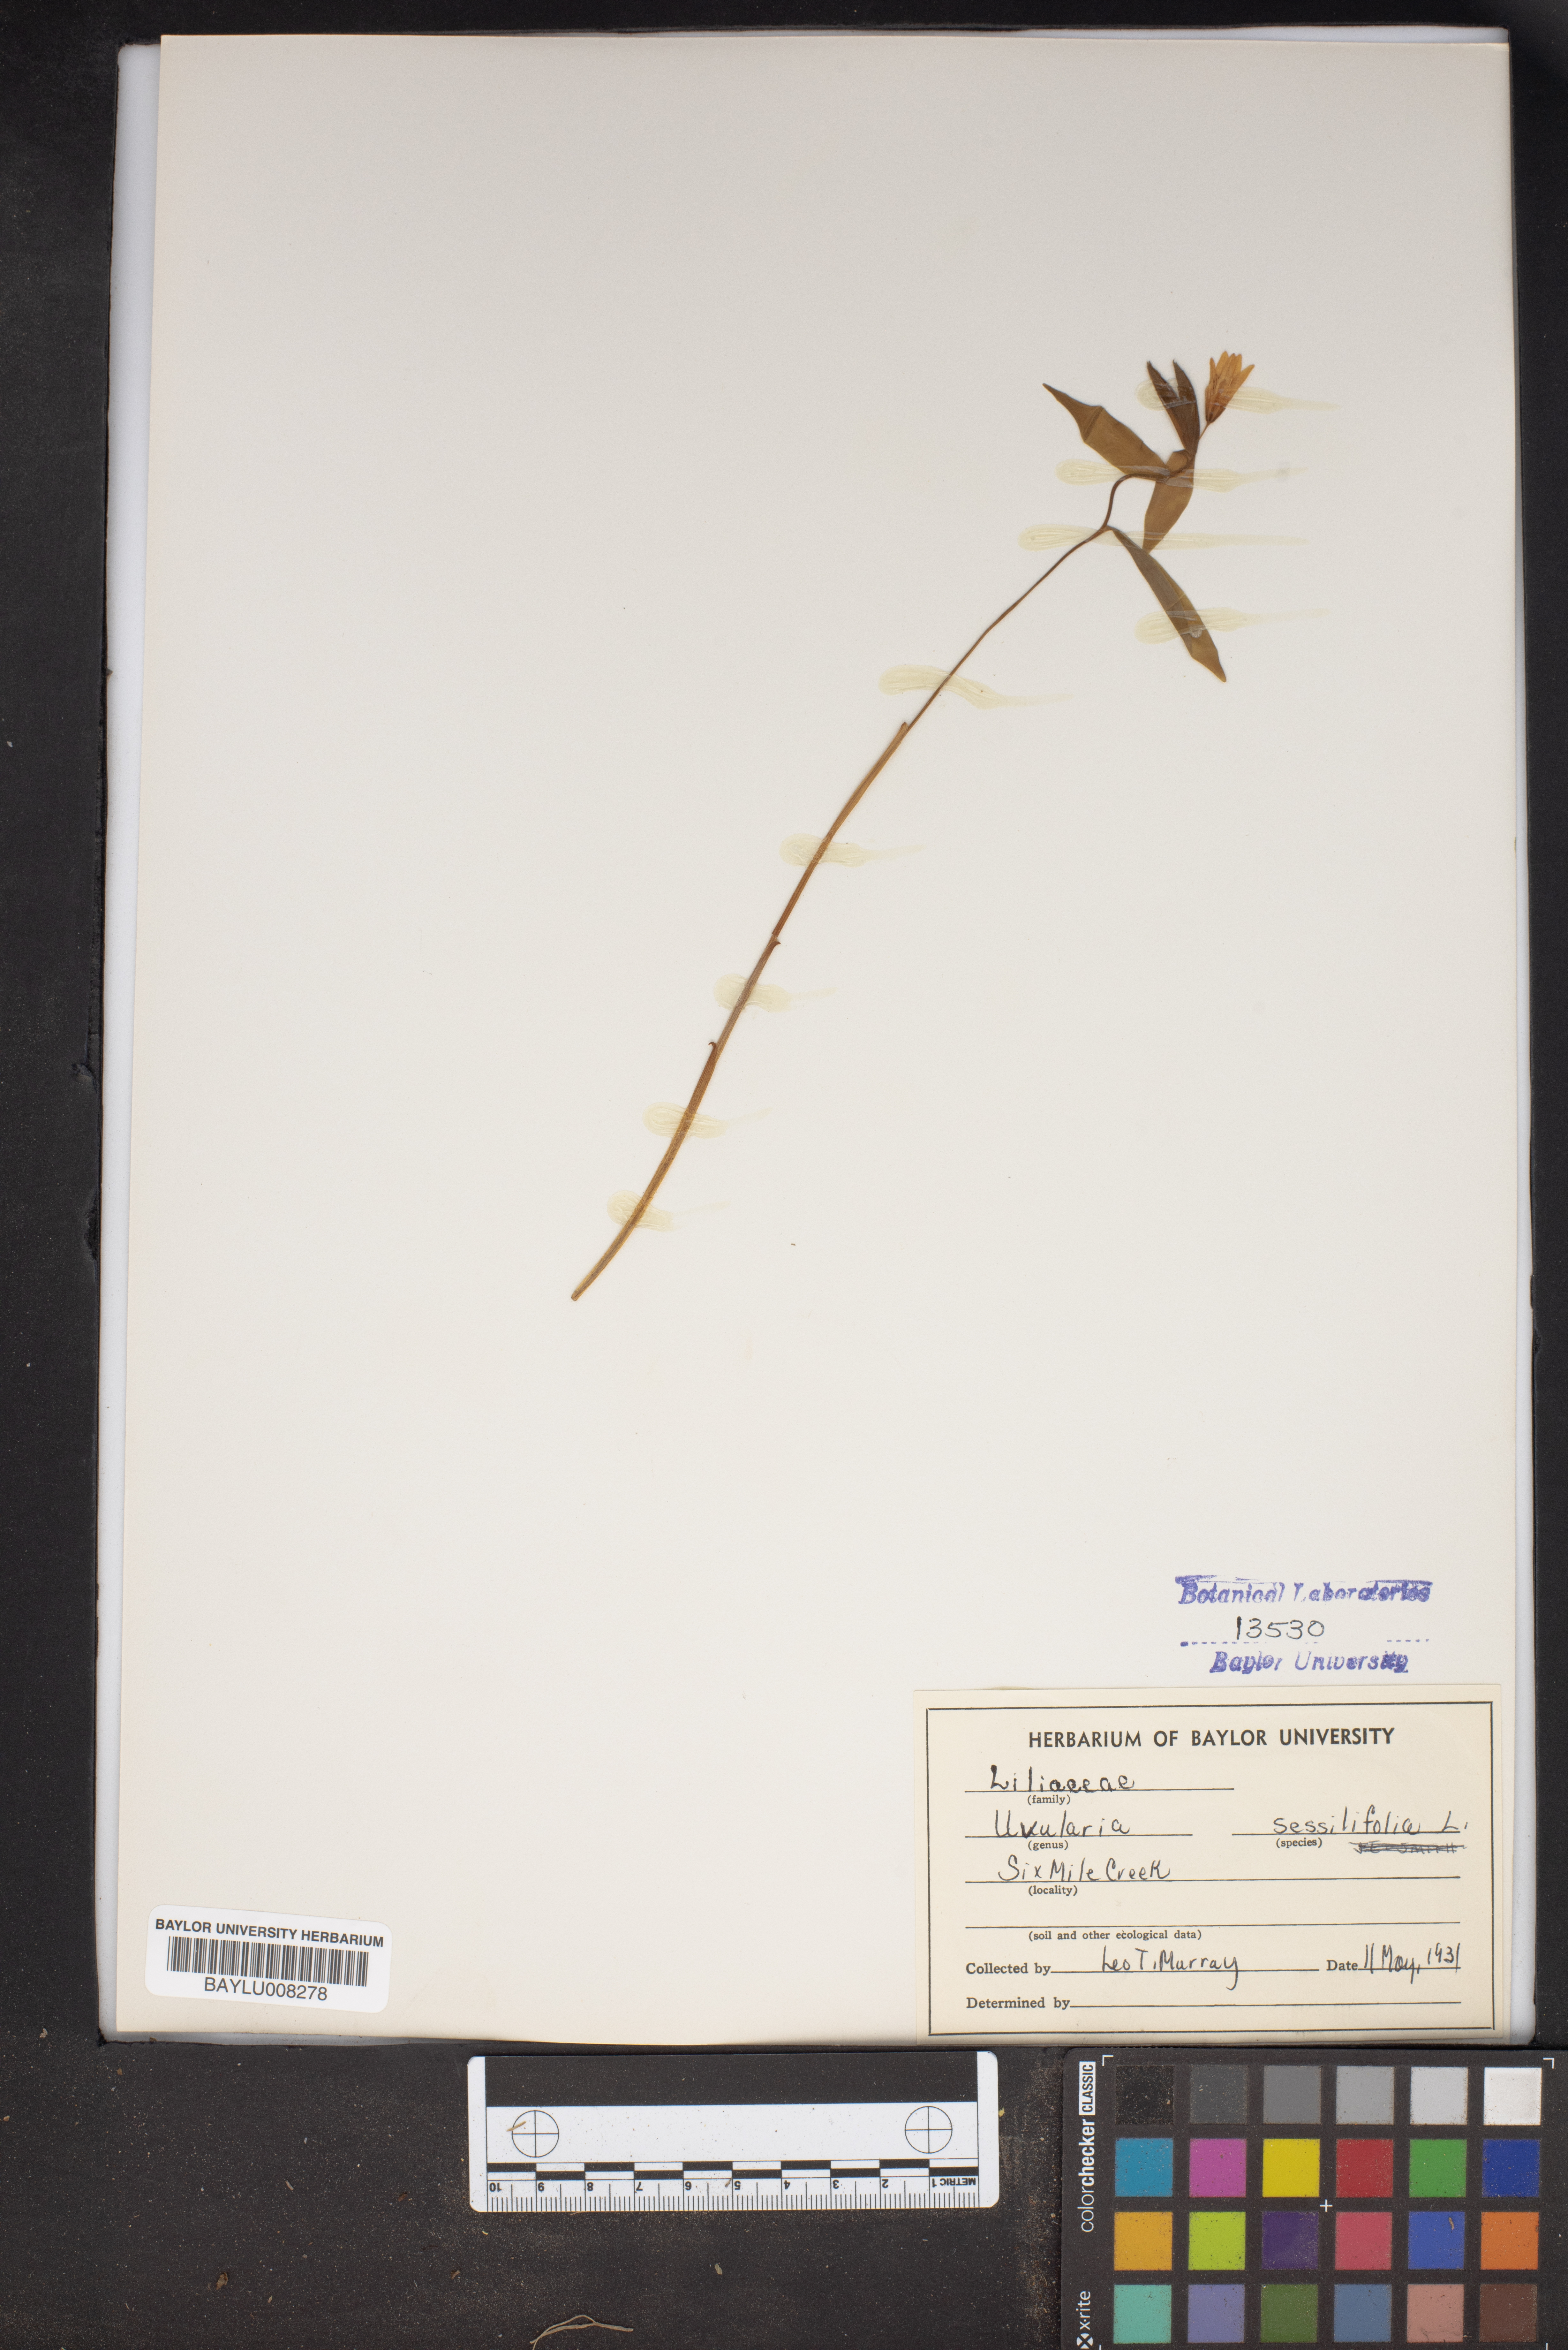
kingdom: Plantae
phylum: Tracheophyta
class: Liliopsida
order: Liliales
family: Colchicaceae
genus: Uvularia
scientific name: Uvularia sessilifolia
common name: Straw-lily
